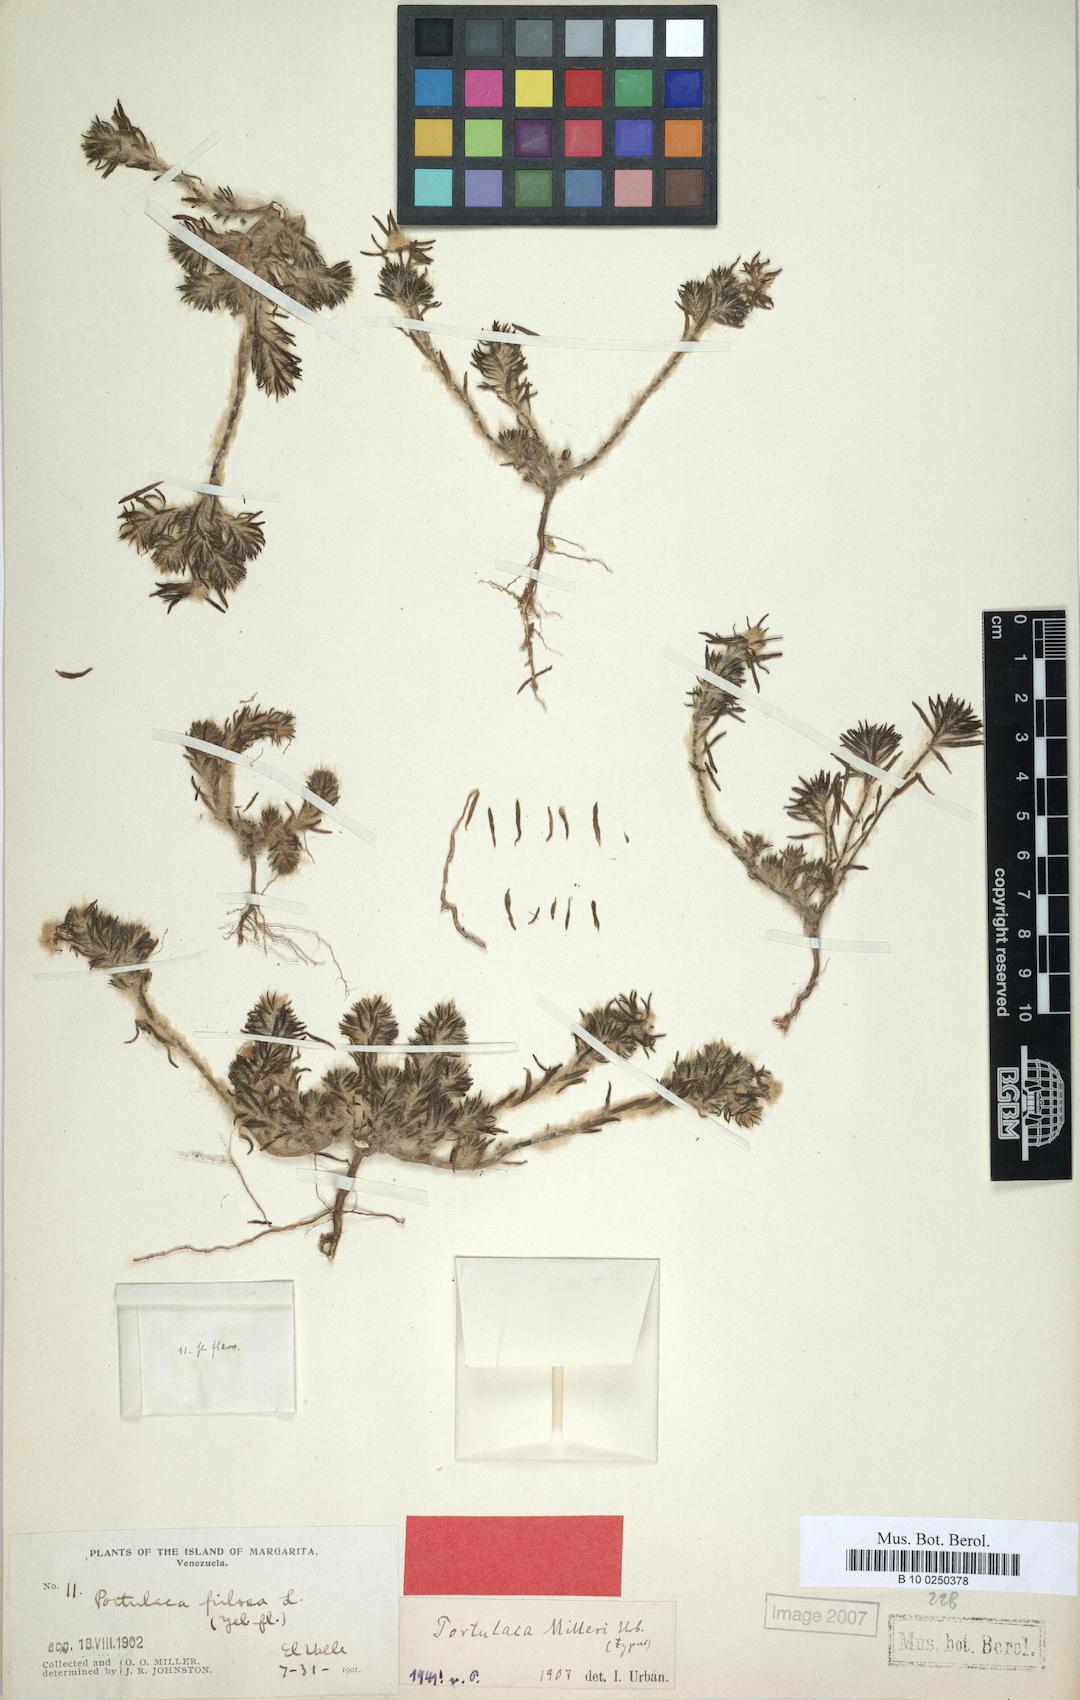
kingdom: Plantae
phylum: Tracheophyta
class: Magnoliopsida
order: Caryophyllales
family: Portulacaceae
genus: Portulaca
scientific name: Portulaca elatior
